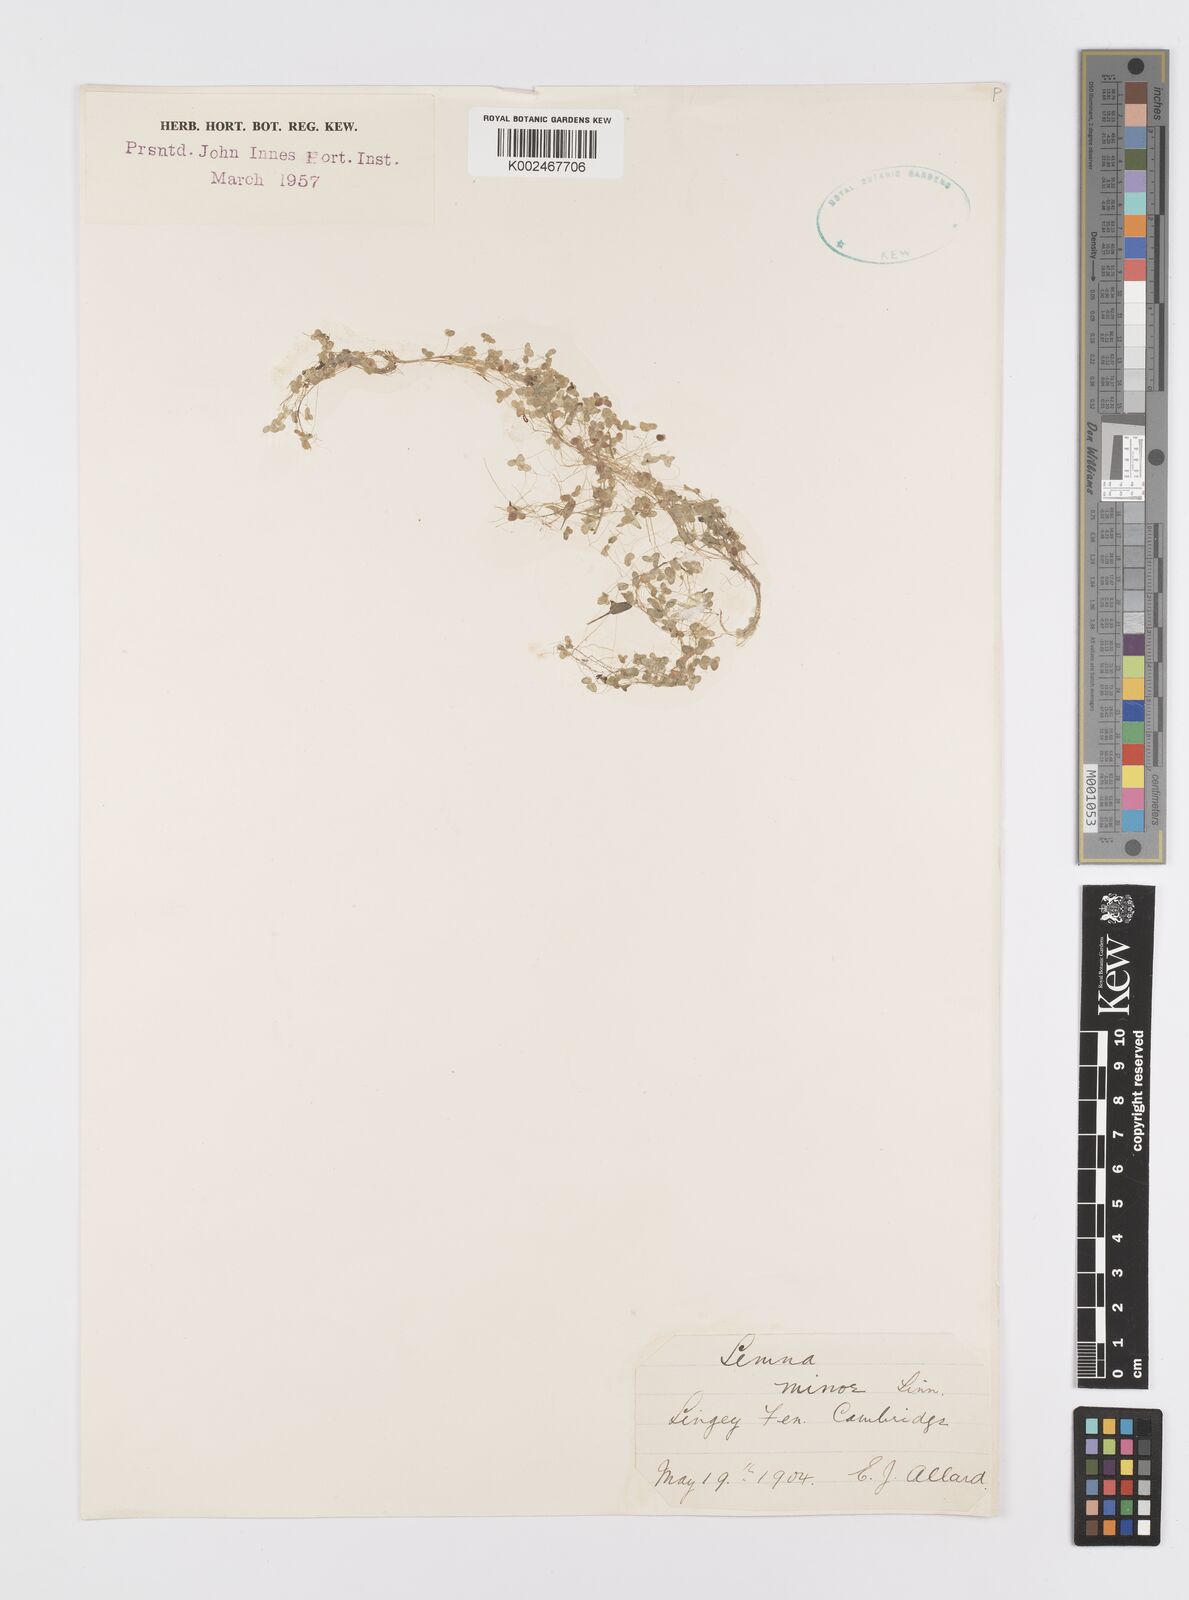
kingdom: Plantae
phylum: Tracheophyta
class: Liliopsida
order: Alismatales
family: Araceae
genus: Lemna
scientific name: Lemna minor
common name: Common duckweed
